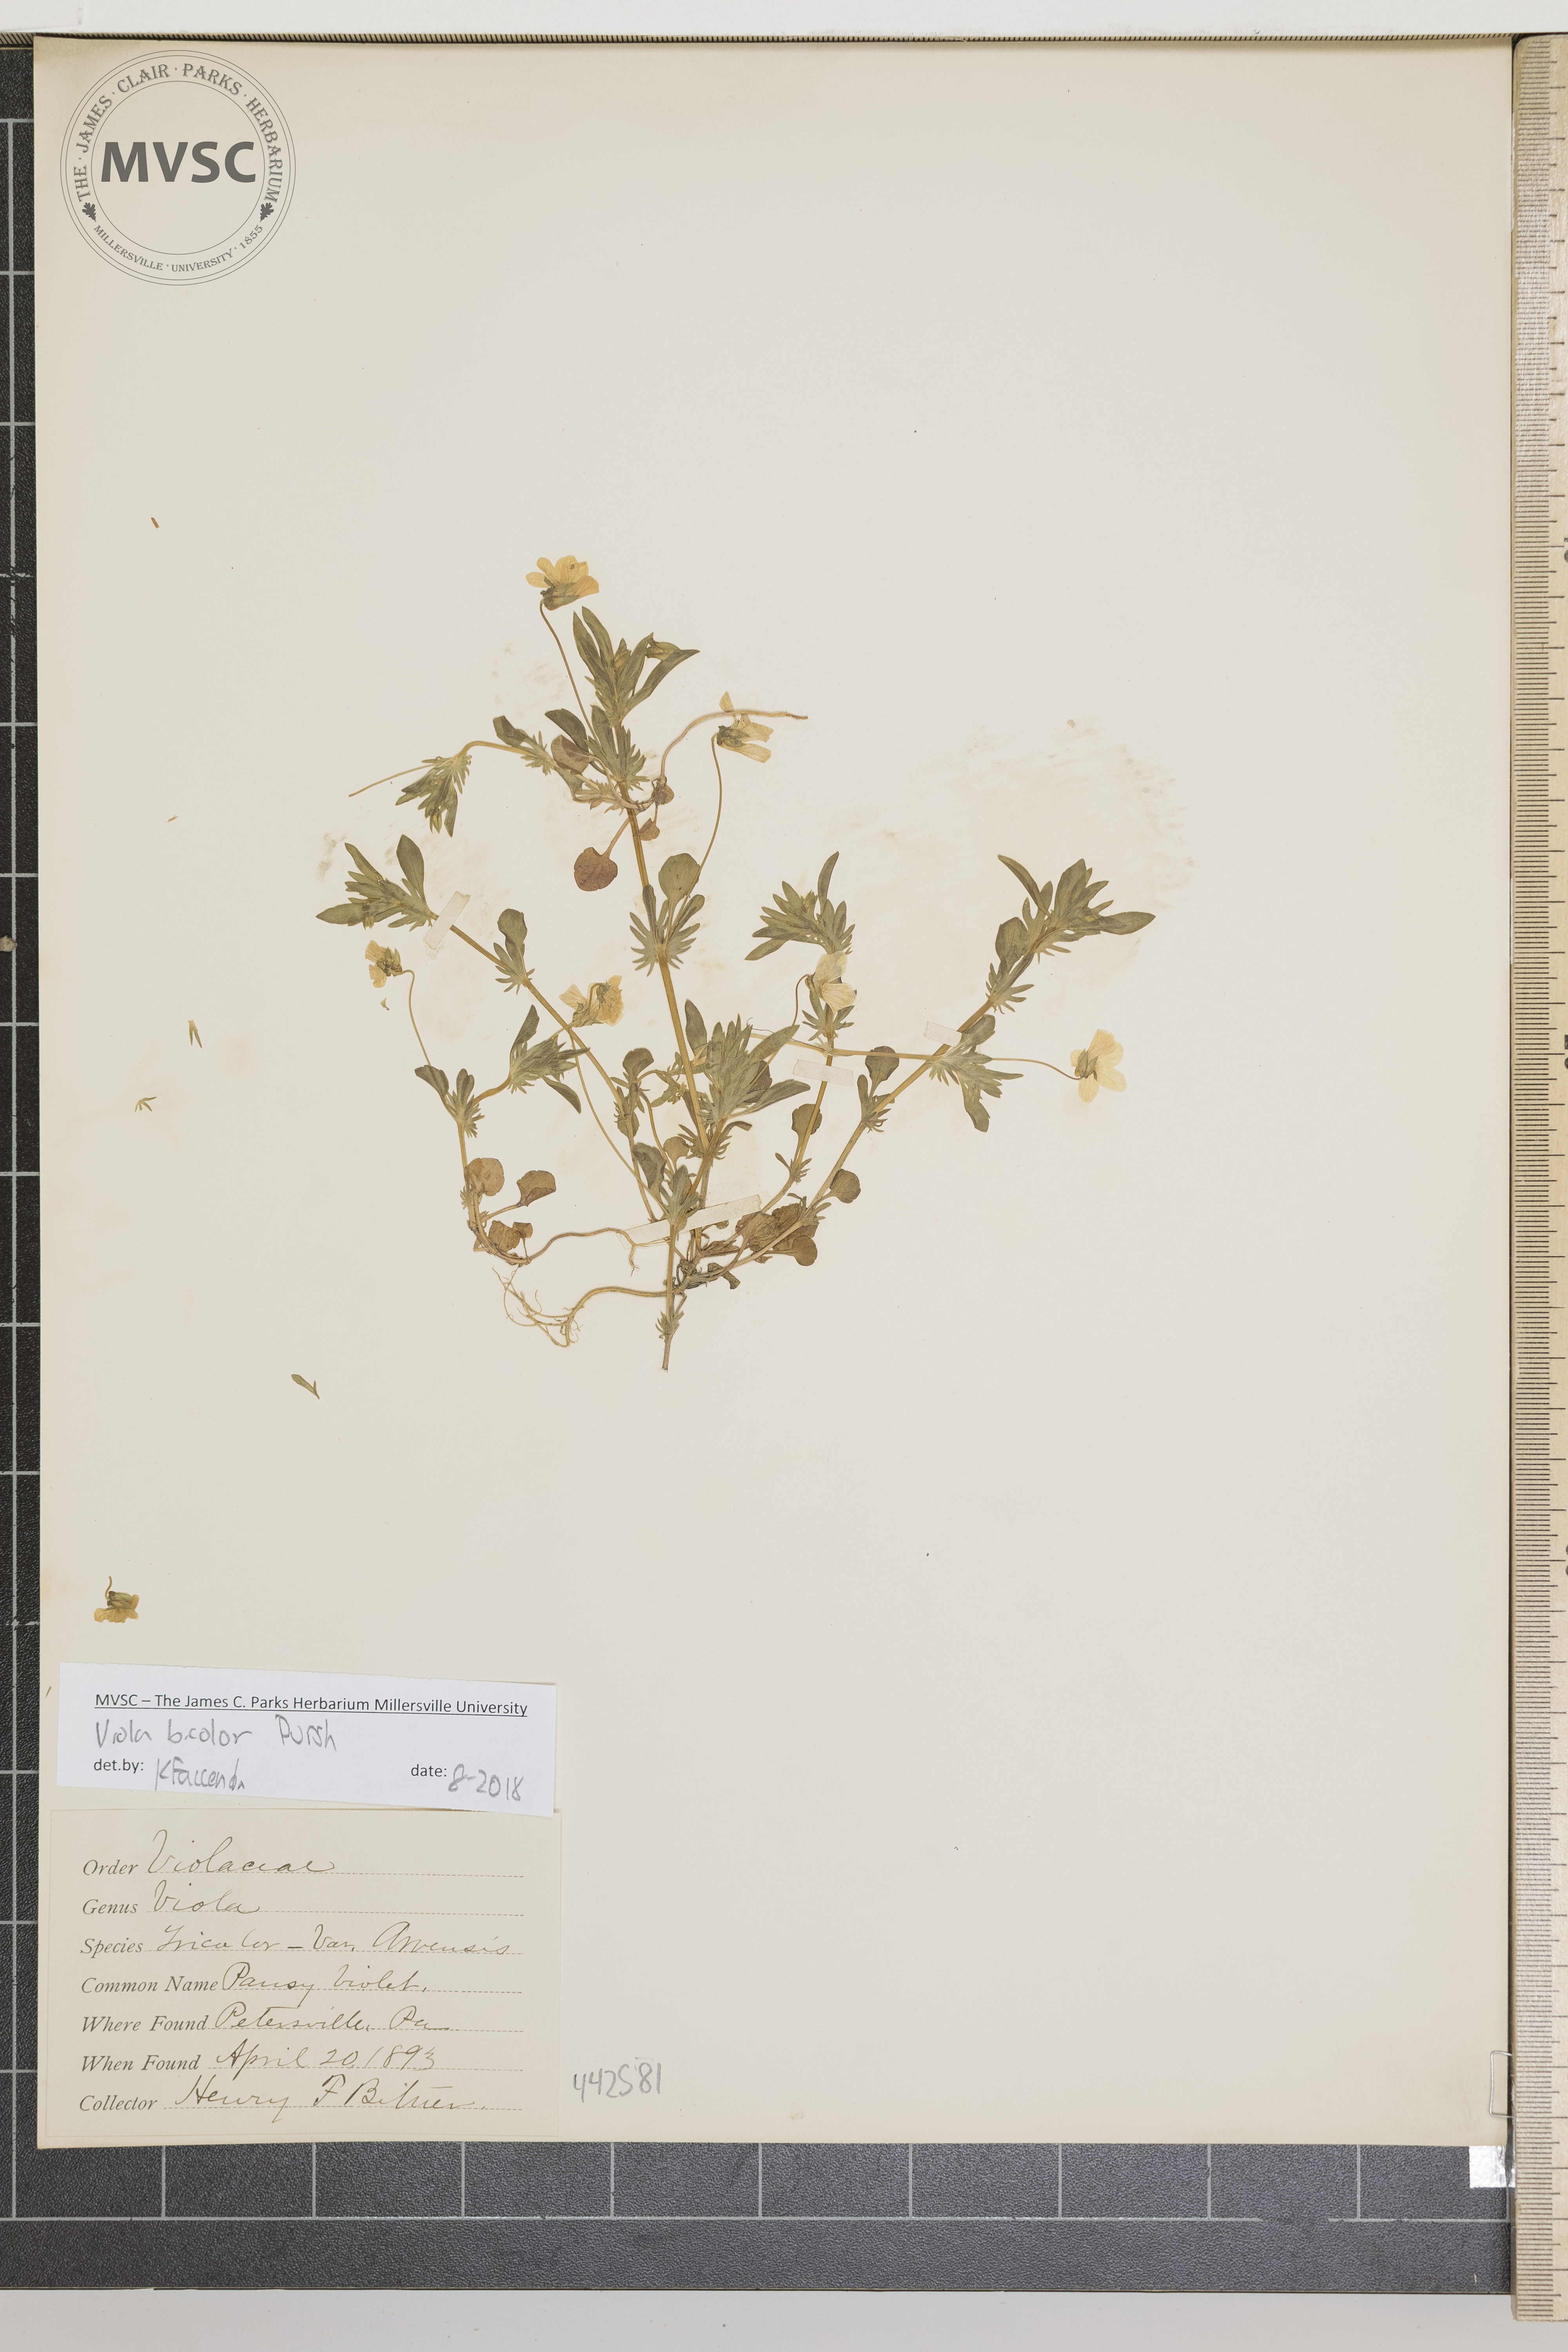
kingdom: Plantae
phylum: Tracheophyta
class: Magnoliopsida
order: Malpighiales
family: Violaceae
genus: Viola
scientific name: Viola rafinesquei
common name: Pansy violet
